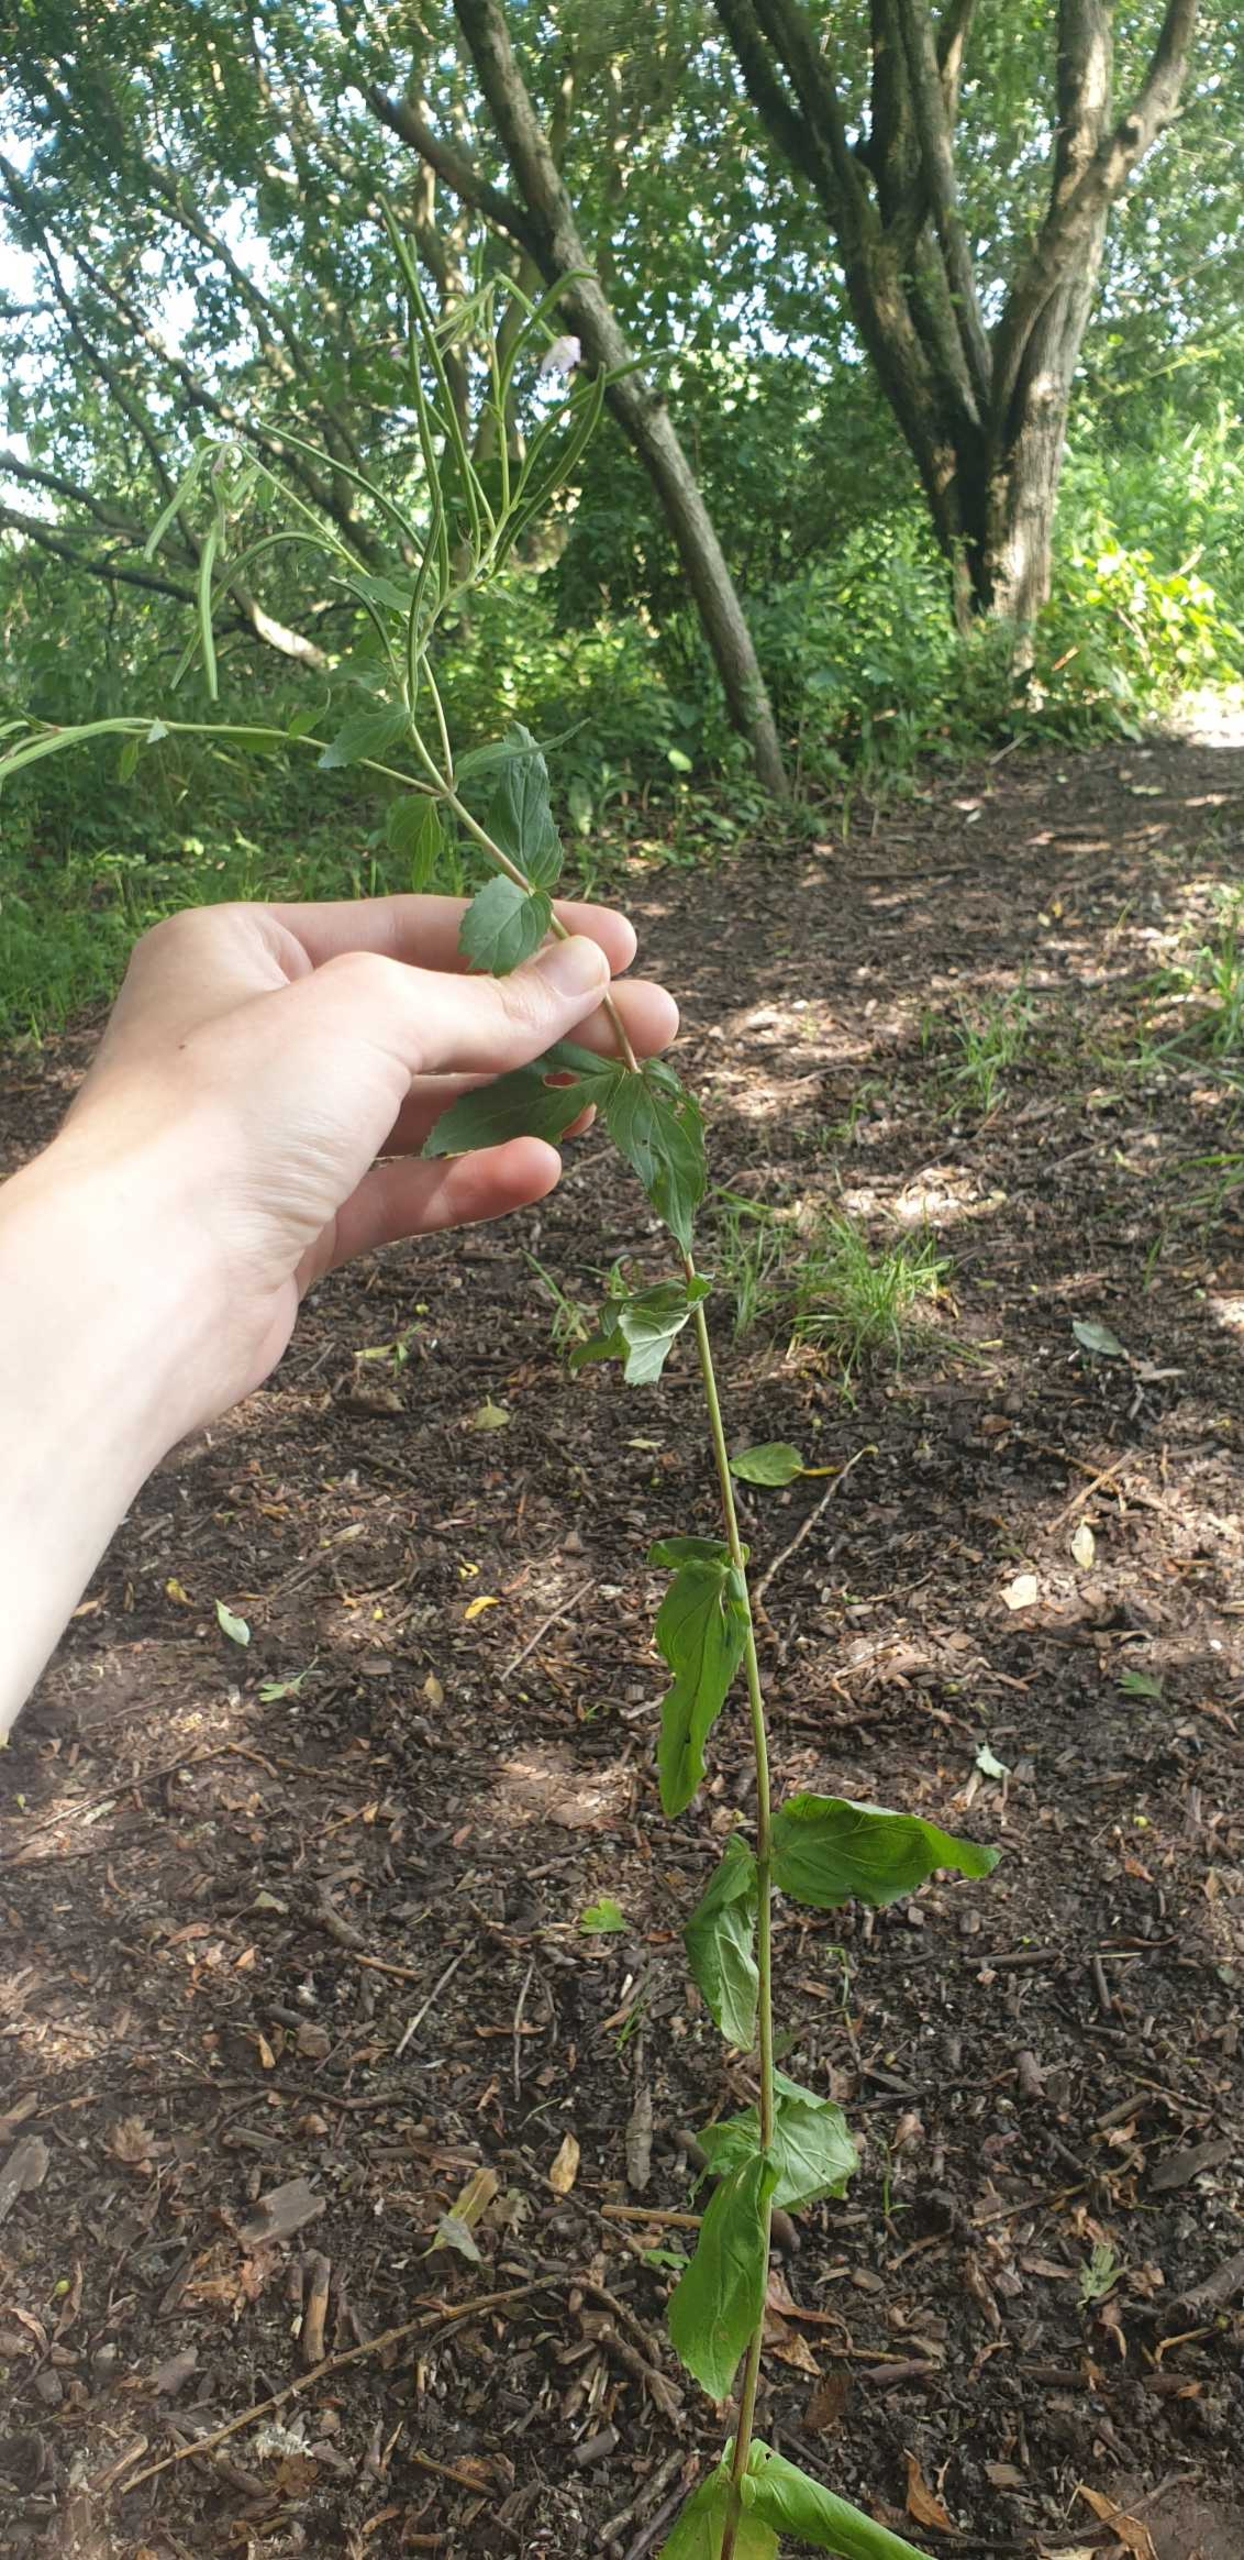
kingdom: Plantae
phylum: Tracheophyta
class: Magnoliopsida
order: Myrtales
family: Onagraceae
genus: Epilobium
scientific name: Epilobium montanum
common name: Glat dueurt
